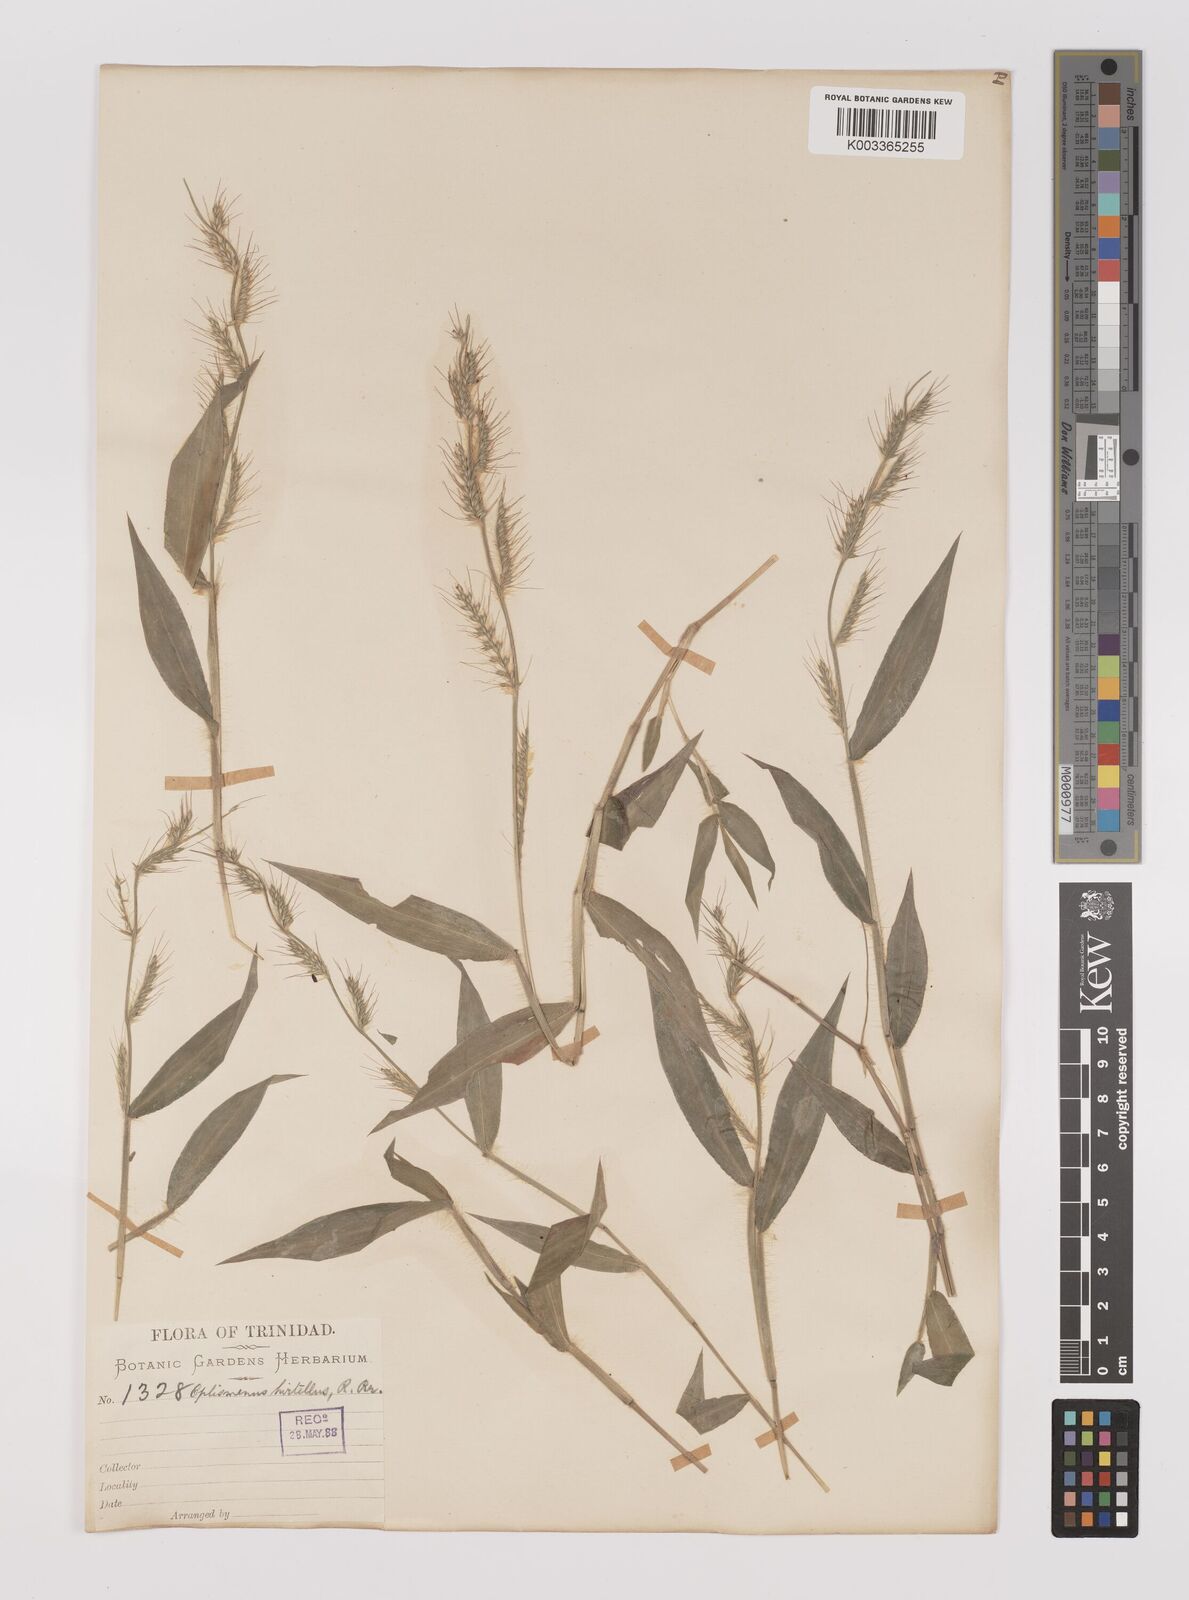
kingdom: Plantae
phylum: Tracheophyta
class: Liliopsida
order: Poales
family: Poaceae
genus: Oplismenus
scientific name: Oplismenus hirtellus
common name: Basketgrass
